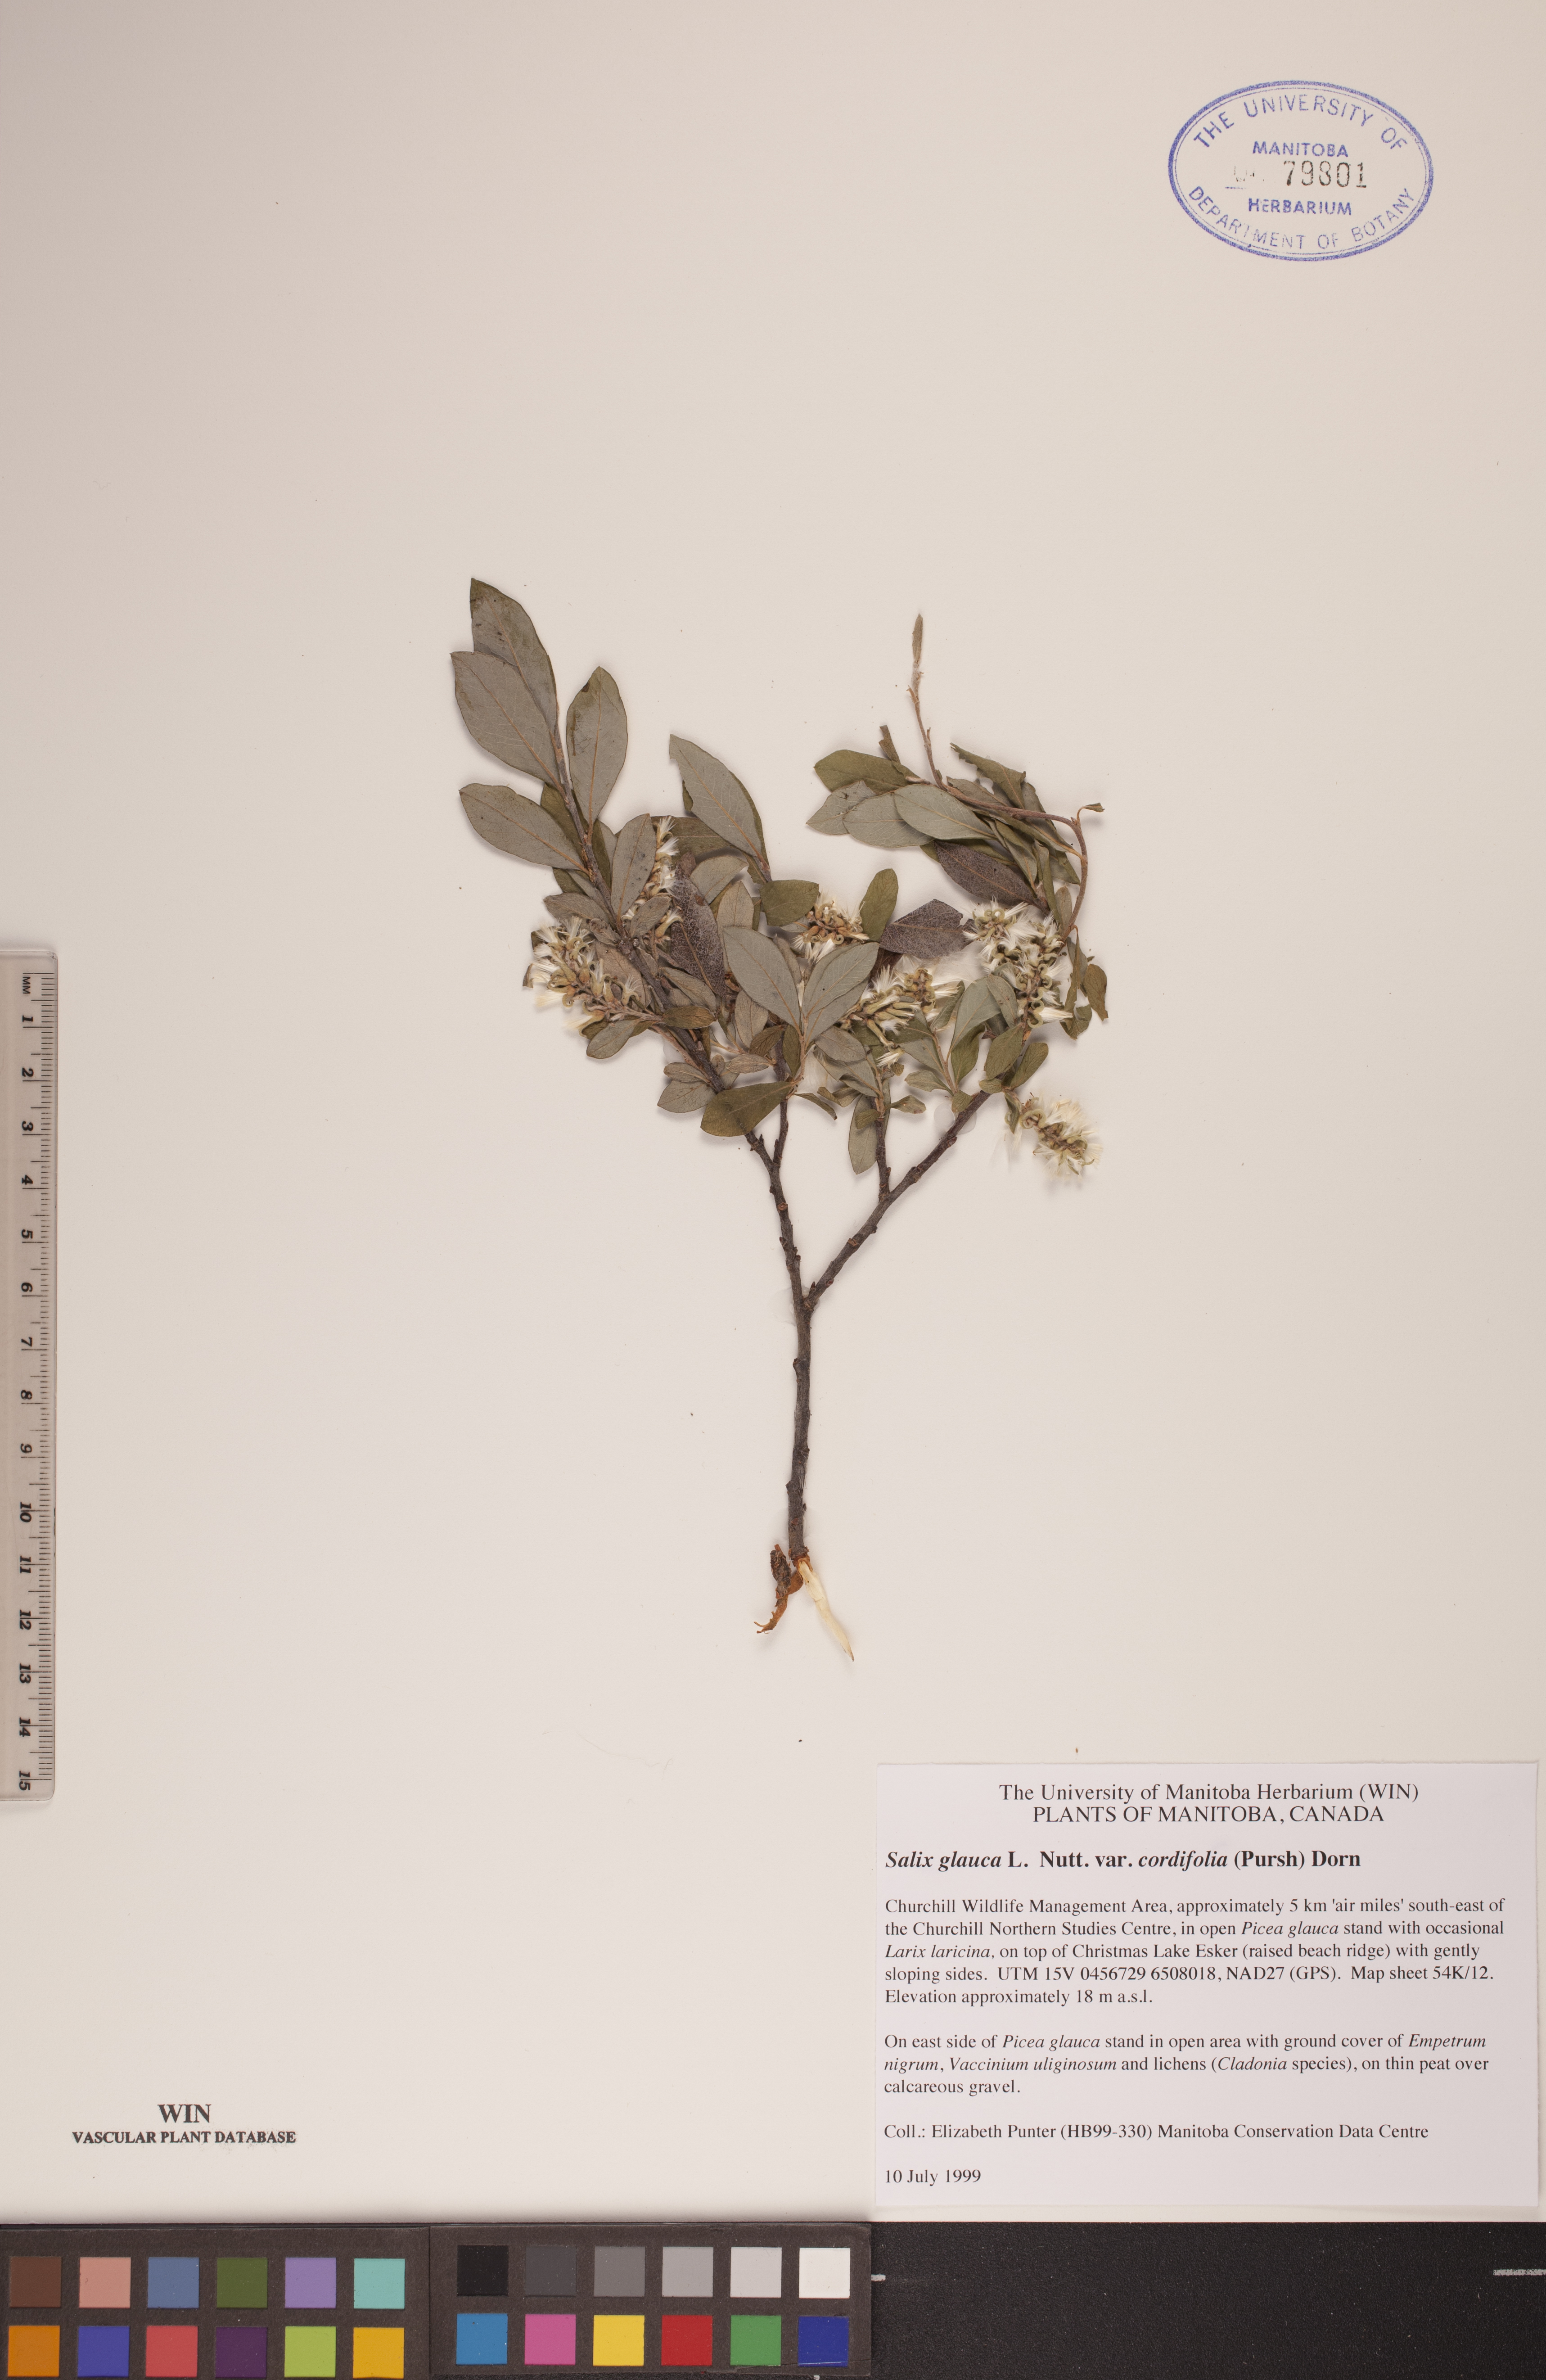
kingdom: Plantae
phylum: Tracheophyta
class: Magnoliopsida
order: Malpighiales
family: Salicaceae
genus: Salix
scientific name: Salix glauca
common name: Glaucous willow
